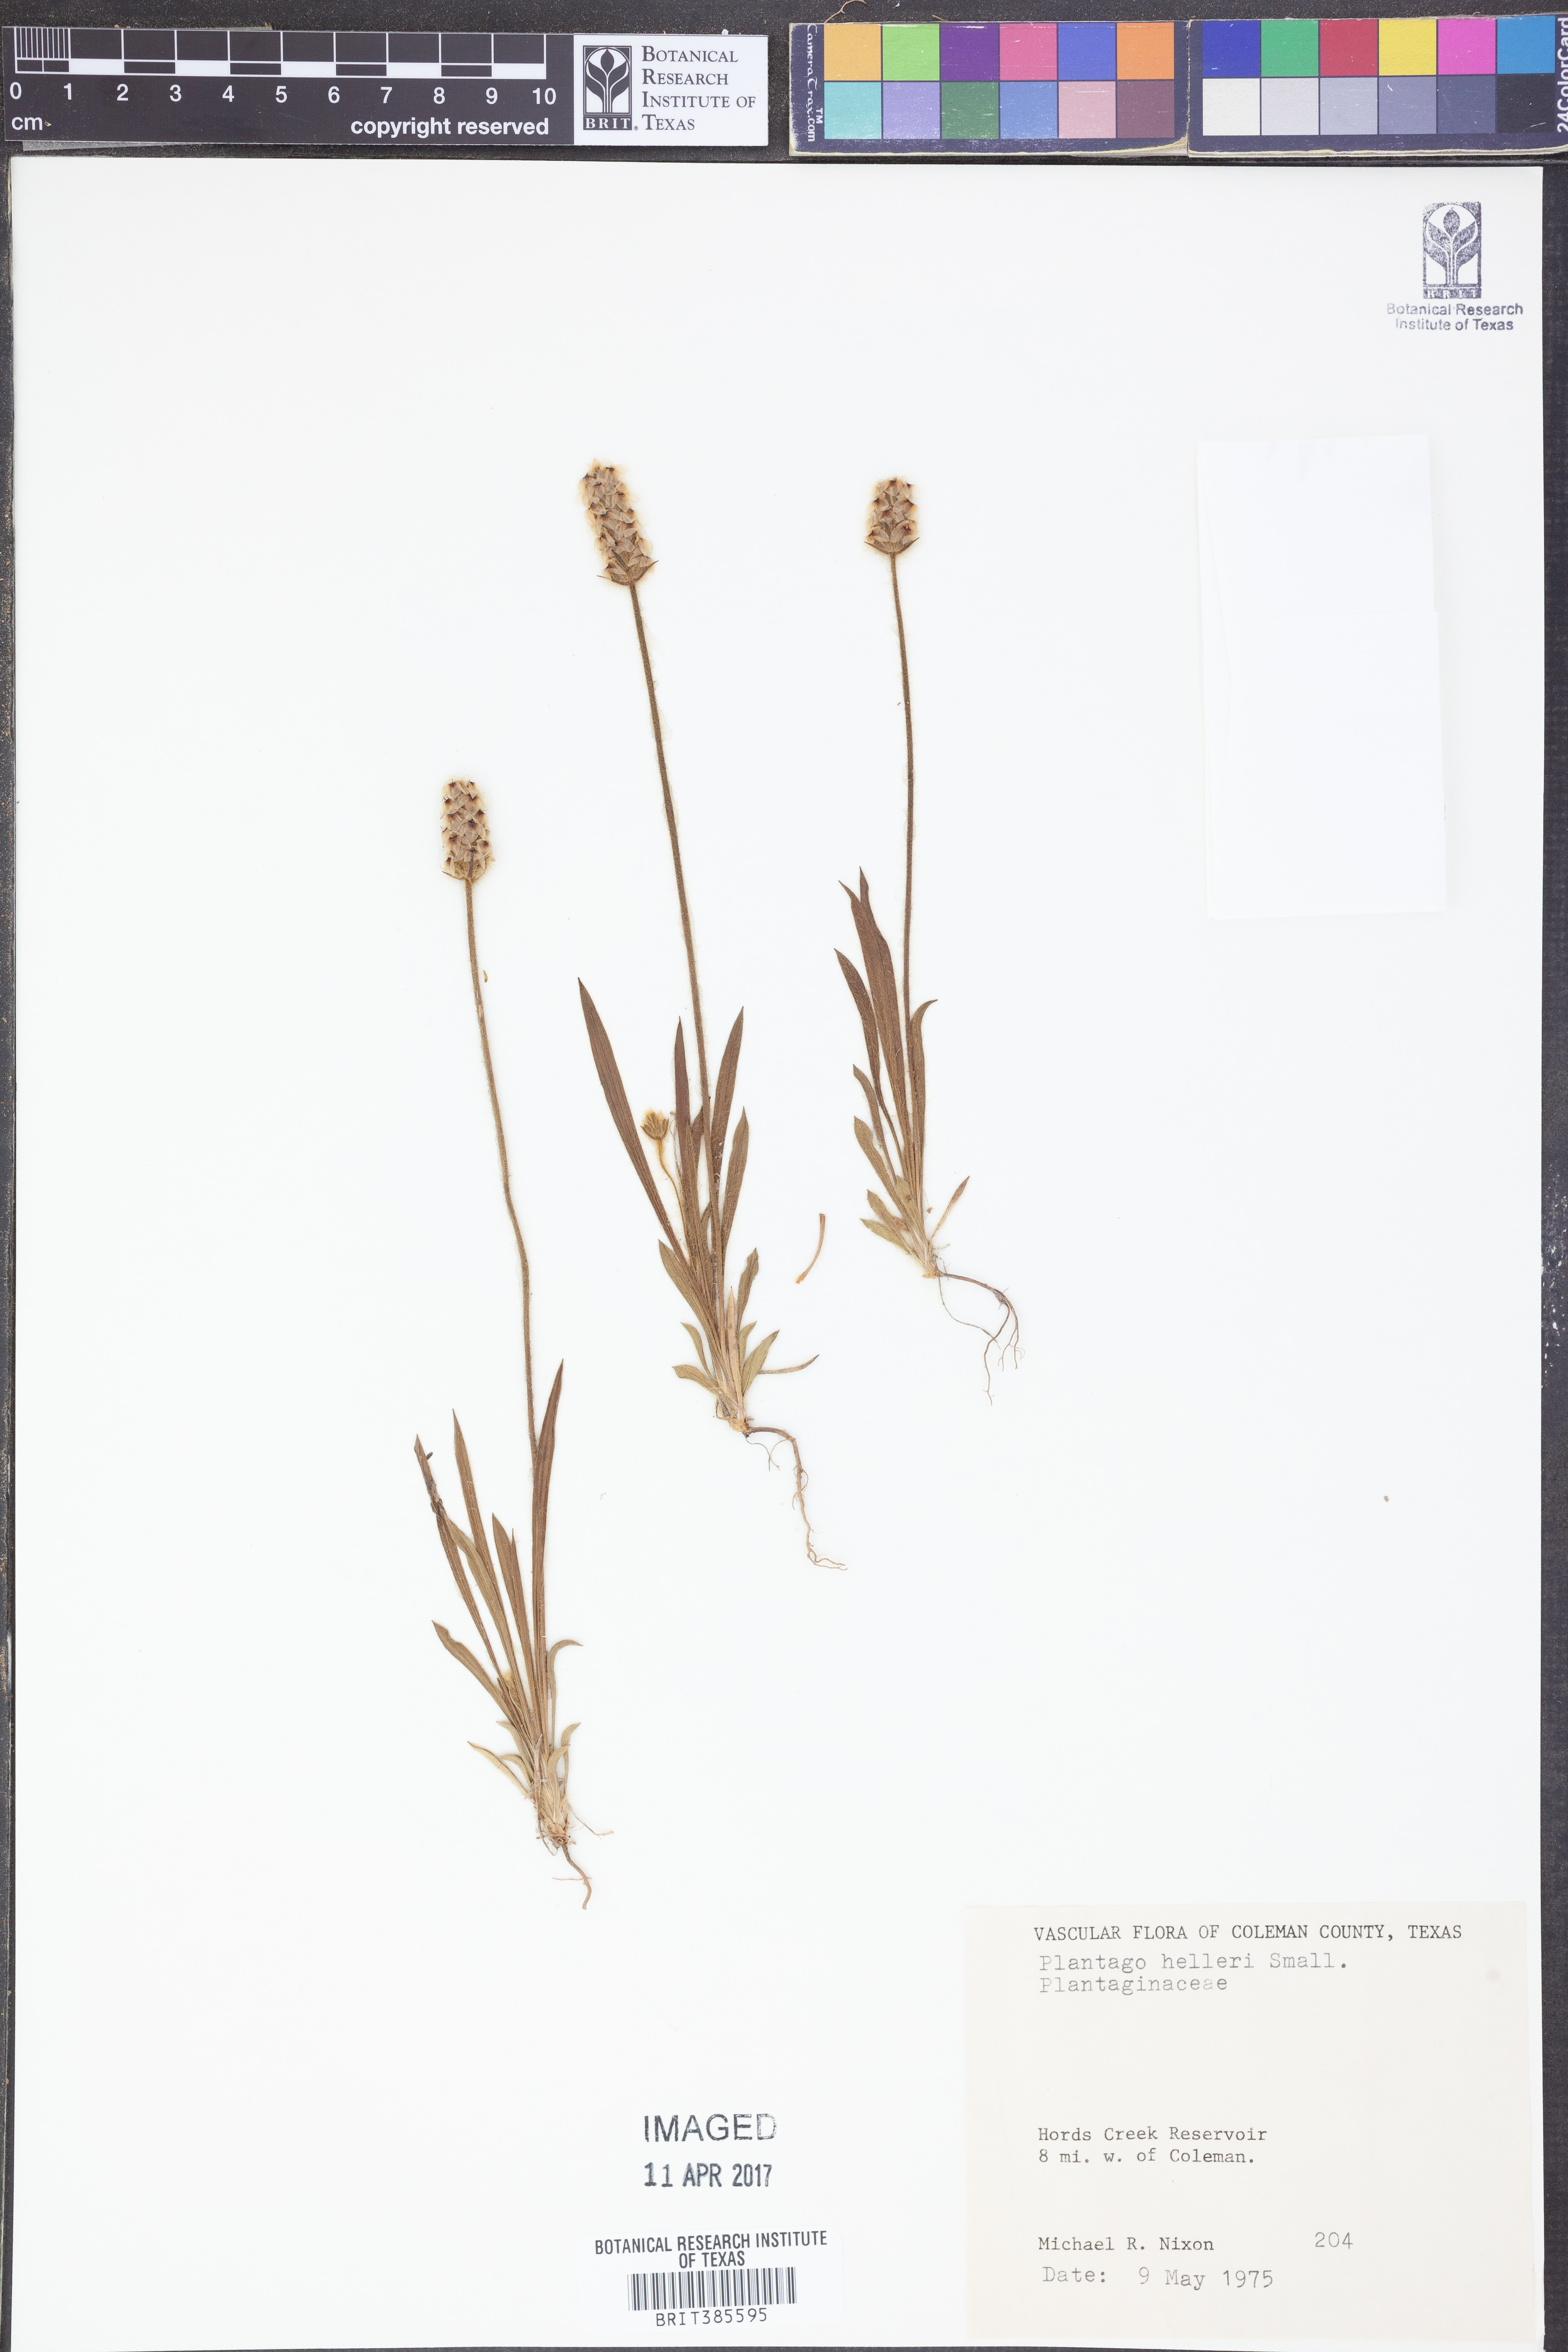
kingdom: Plantae
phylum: Tracheophyta
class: Magnoliopsida
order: Lamiales
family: Plantaginaceae
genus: Plantago
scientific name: Plantago helleri
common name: Heller's plantain
